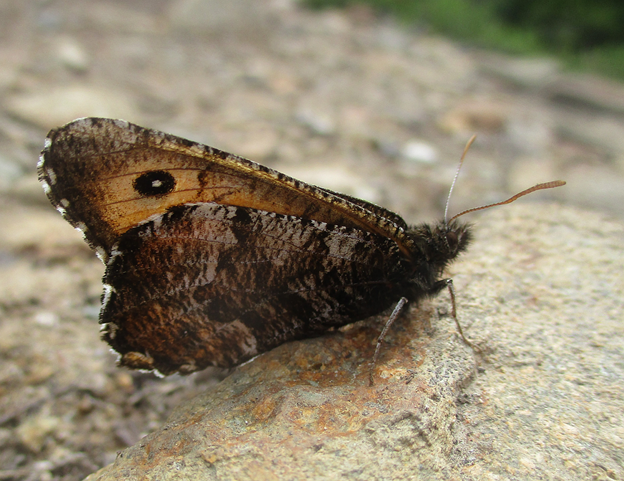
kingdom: Animalia
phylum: Arthropoda
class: Insecta
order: Lepidoptera
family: Nymphalidae
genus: Oeneis
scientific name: Oeneis nevadensis
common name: Great Arctic
